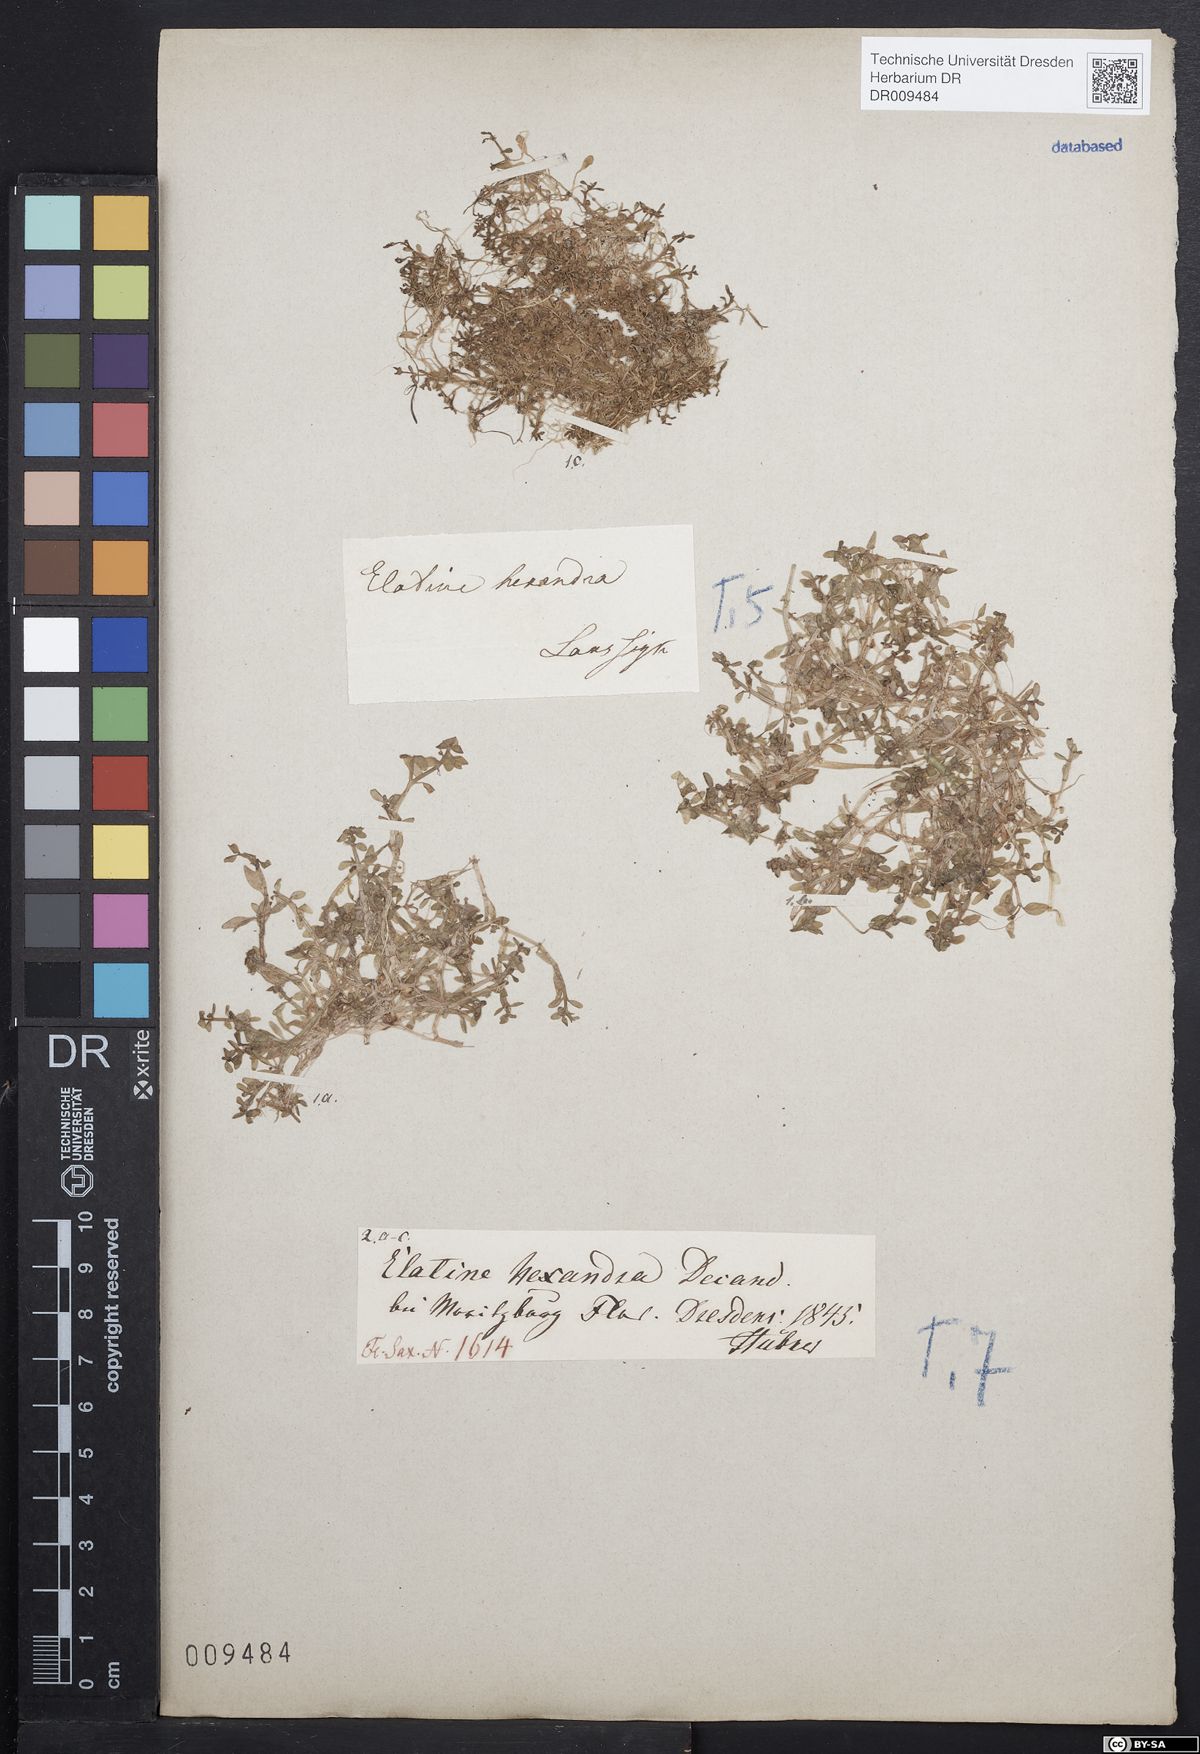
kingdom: Plantae
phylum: Tracheophyta
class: Magnoliopsida
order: Malpighiales
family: Elatinaceae
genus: Elatine
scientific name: Elatine hexandra
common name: Six-stamened waterwort
